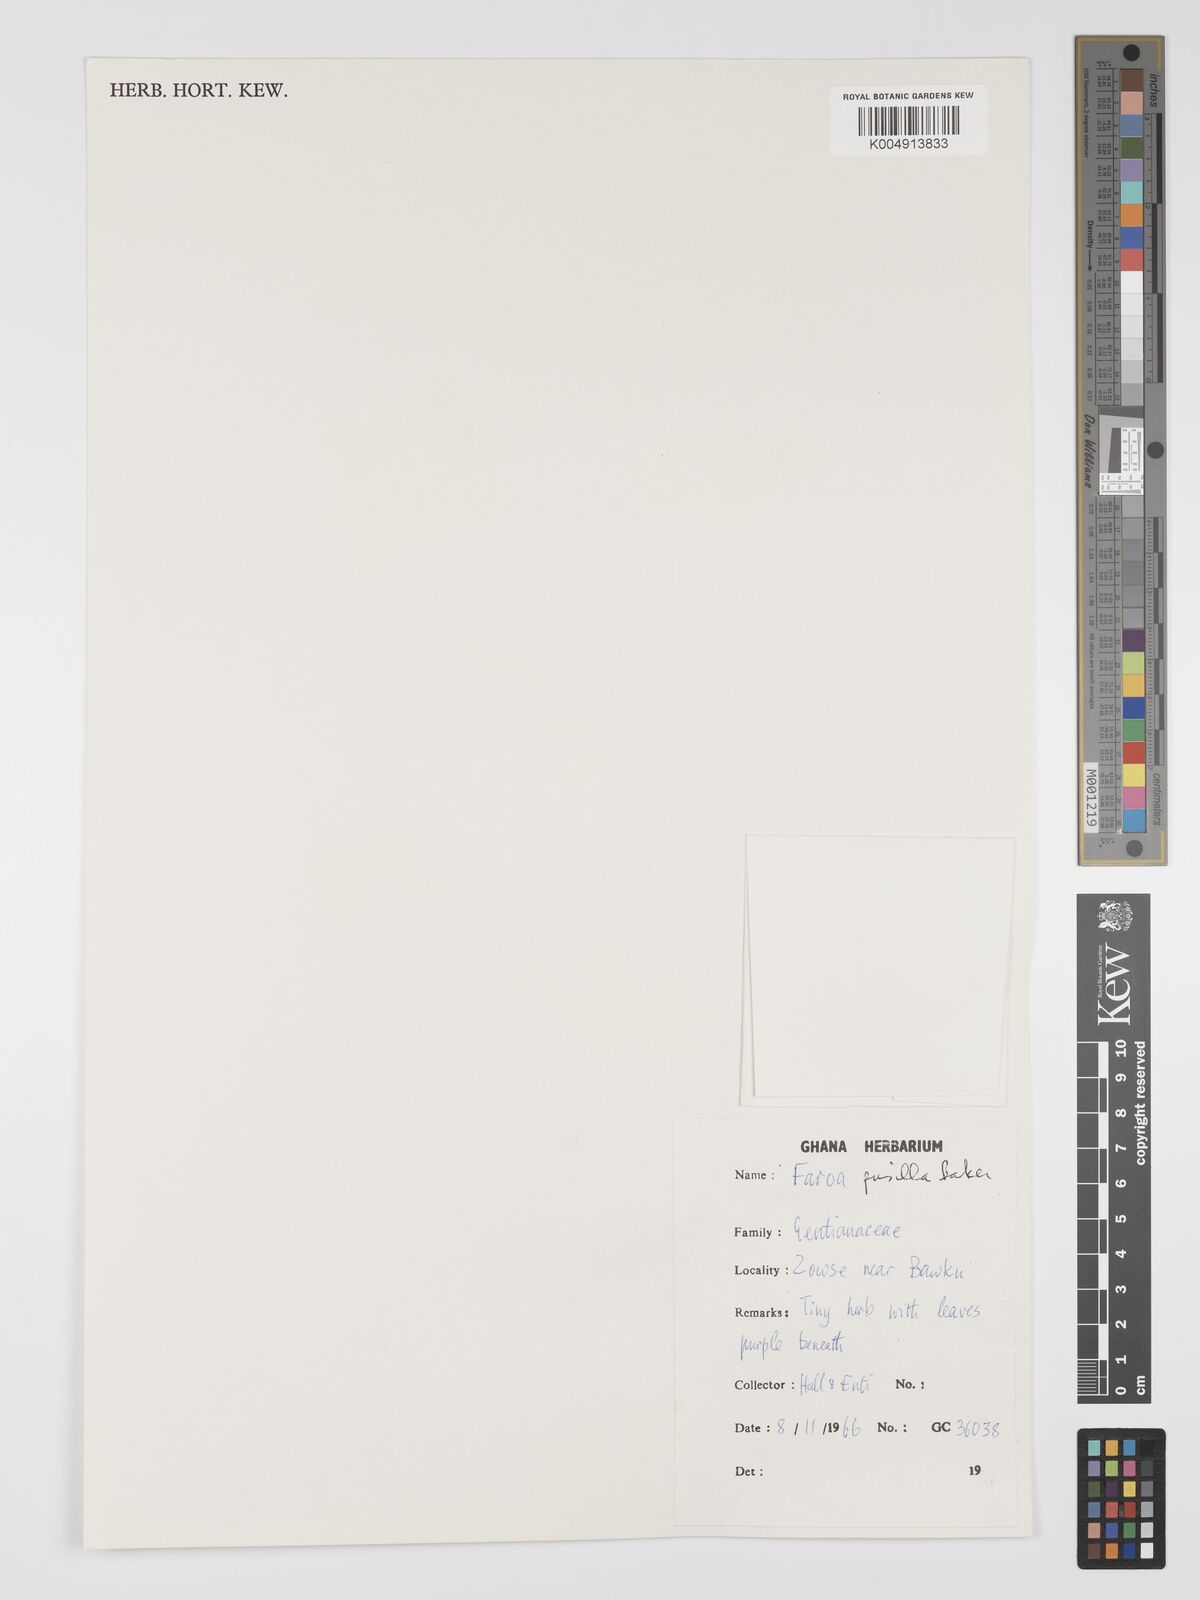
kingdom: Plantae
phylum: Tracheophyta
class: Magnoliopsida
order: Gentianales
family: Gentianaceae
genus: Faroa
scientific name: Faroa pusilla
